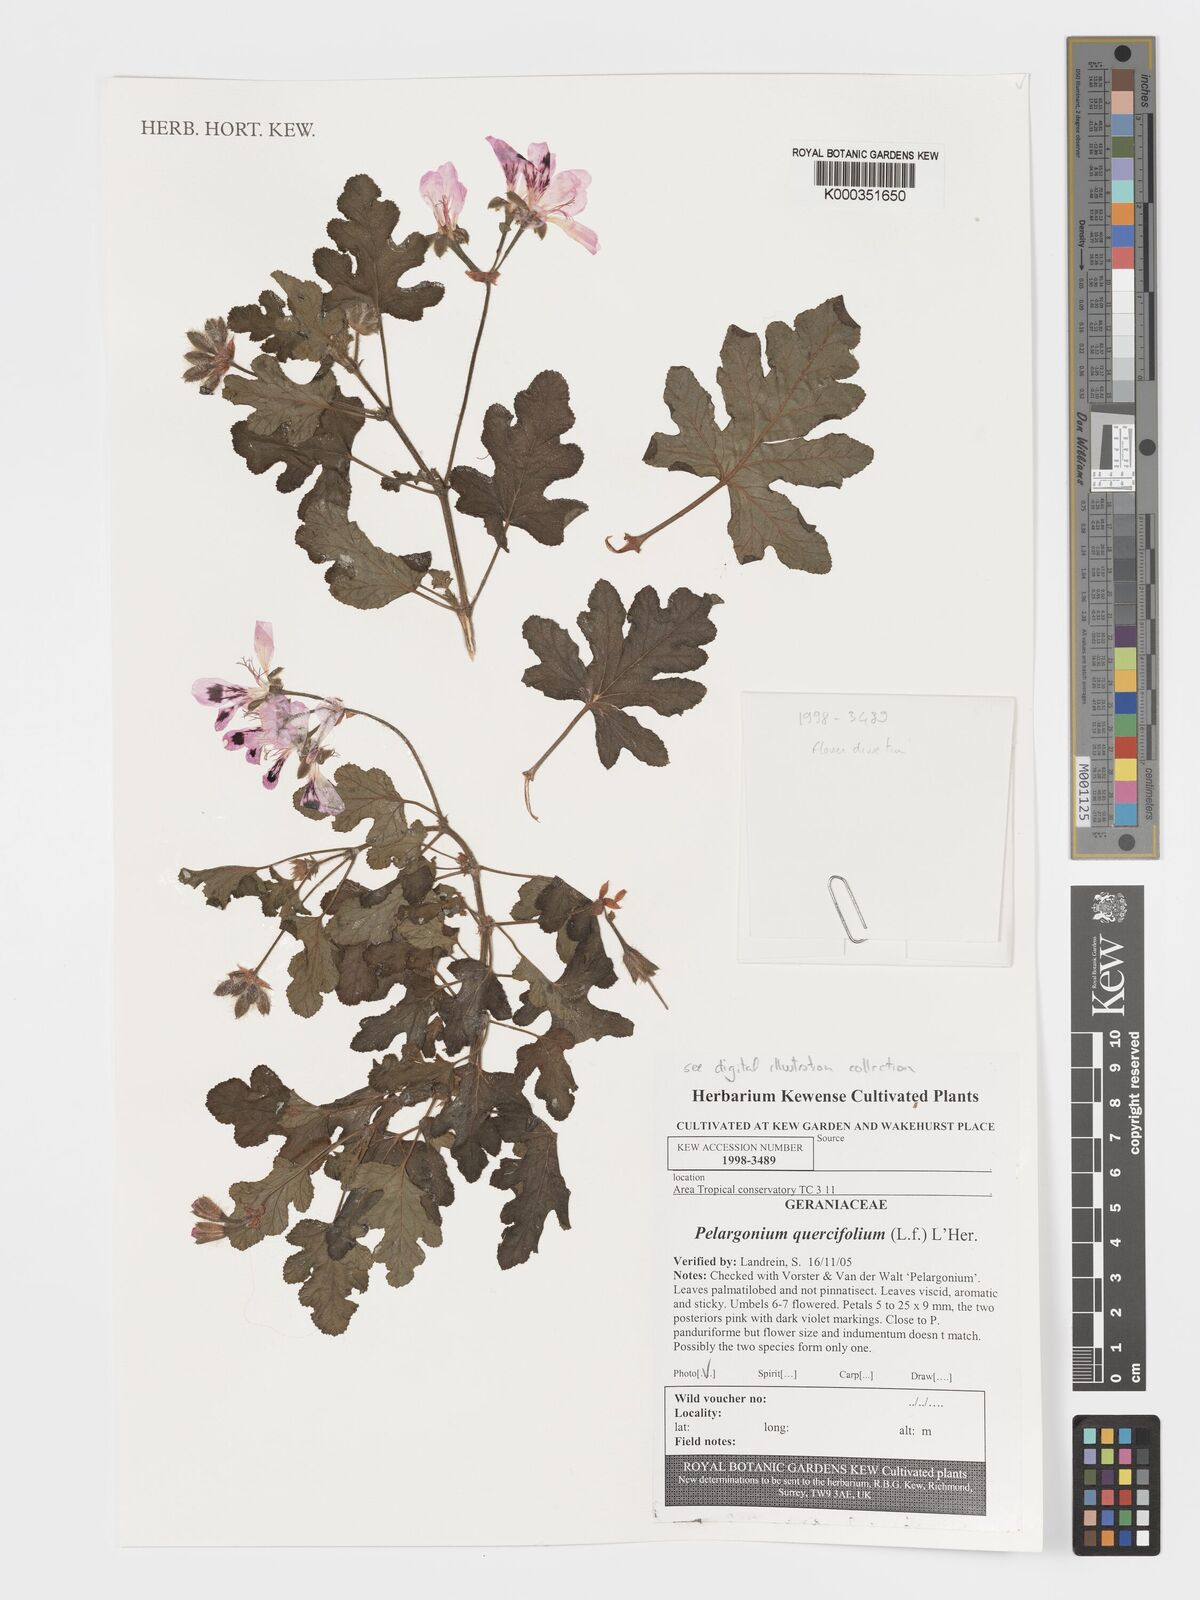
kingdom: Plantae
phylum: Tracheophyta
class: Magnoliopsida
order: Geraniales
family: Geraniaceae
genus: Pelargonium
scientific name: Pelargonium quercifolium
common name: Oakleaf geranium
